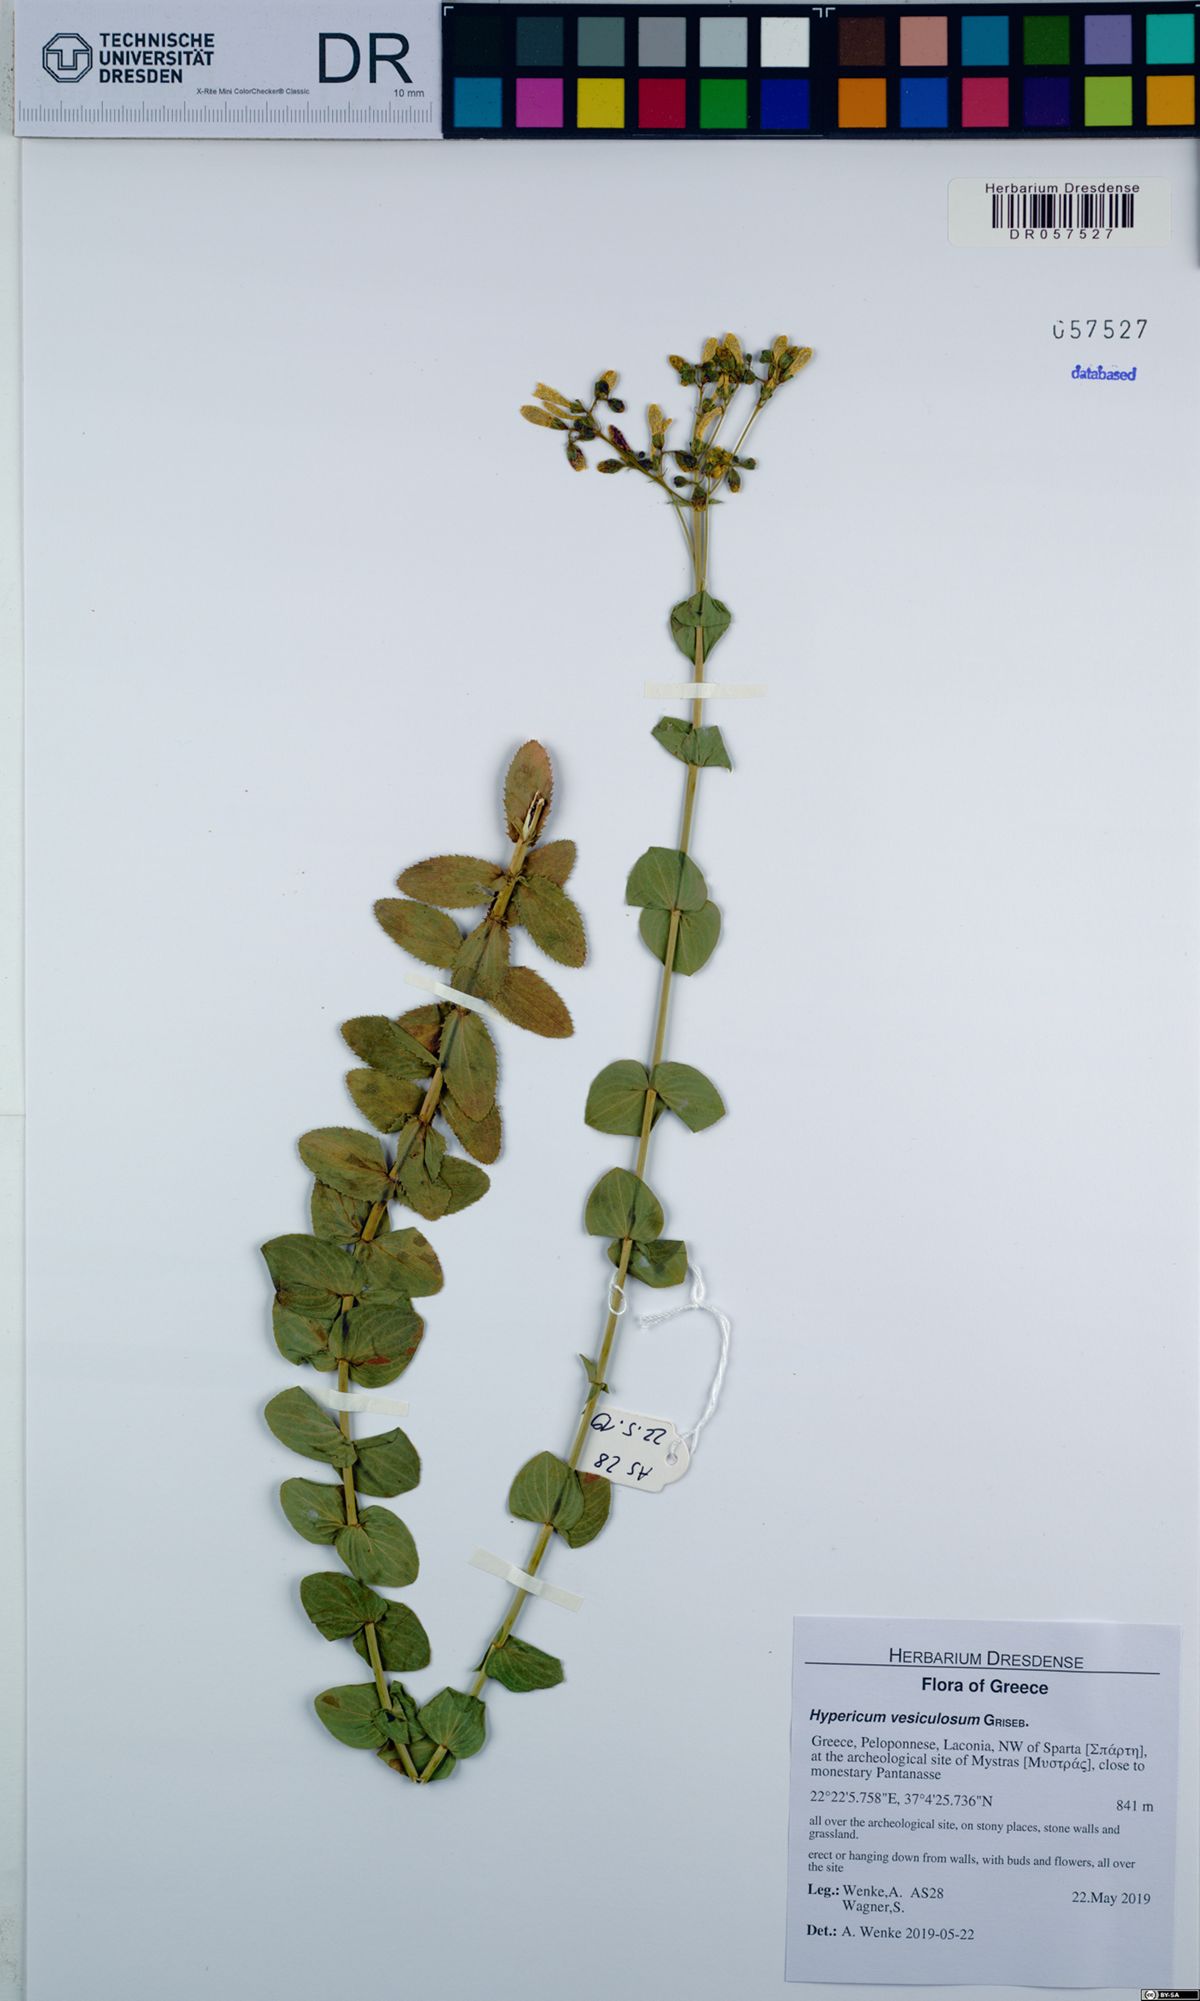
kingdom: Plantae
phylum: Tracheophyta
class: Magnoliopsida
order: Malpighiales
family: Hypericaceae
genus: Hypericum
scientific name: Hypericum vesiculosum
